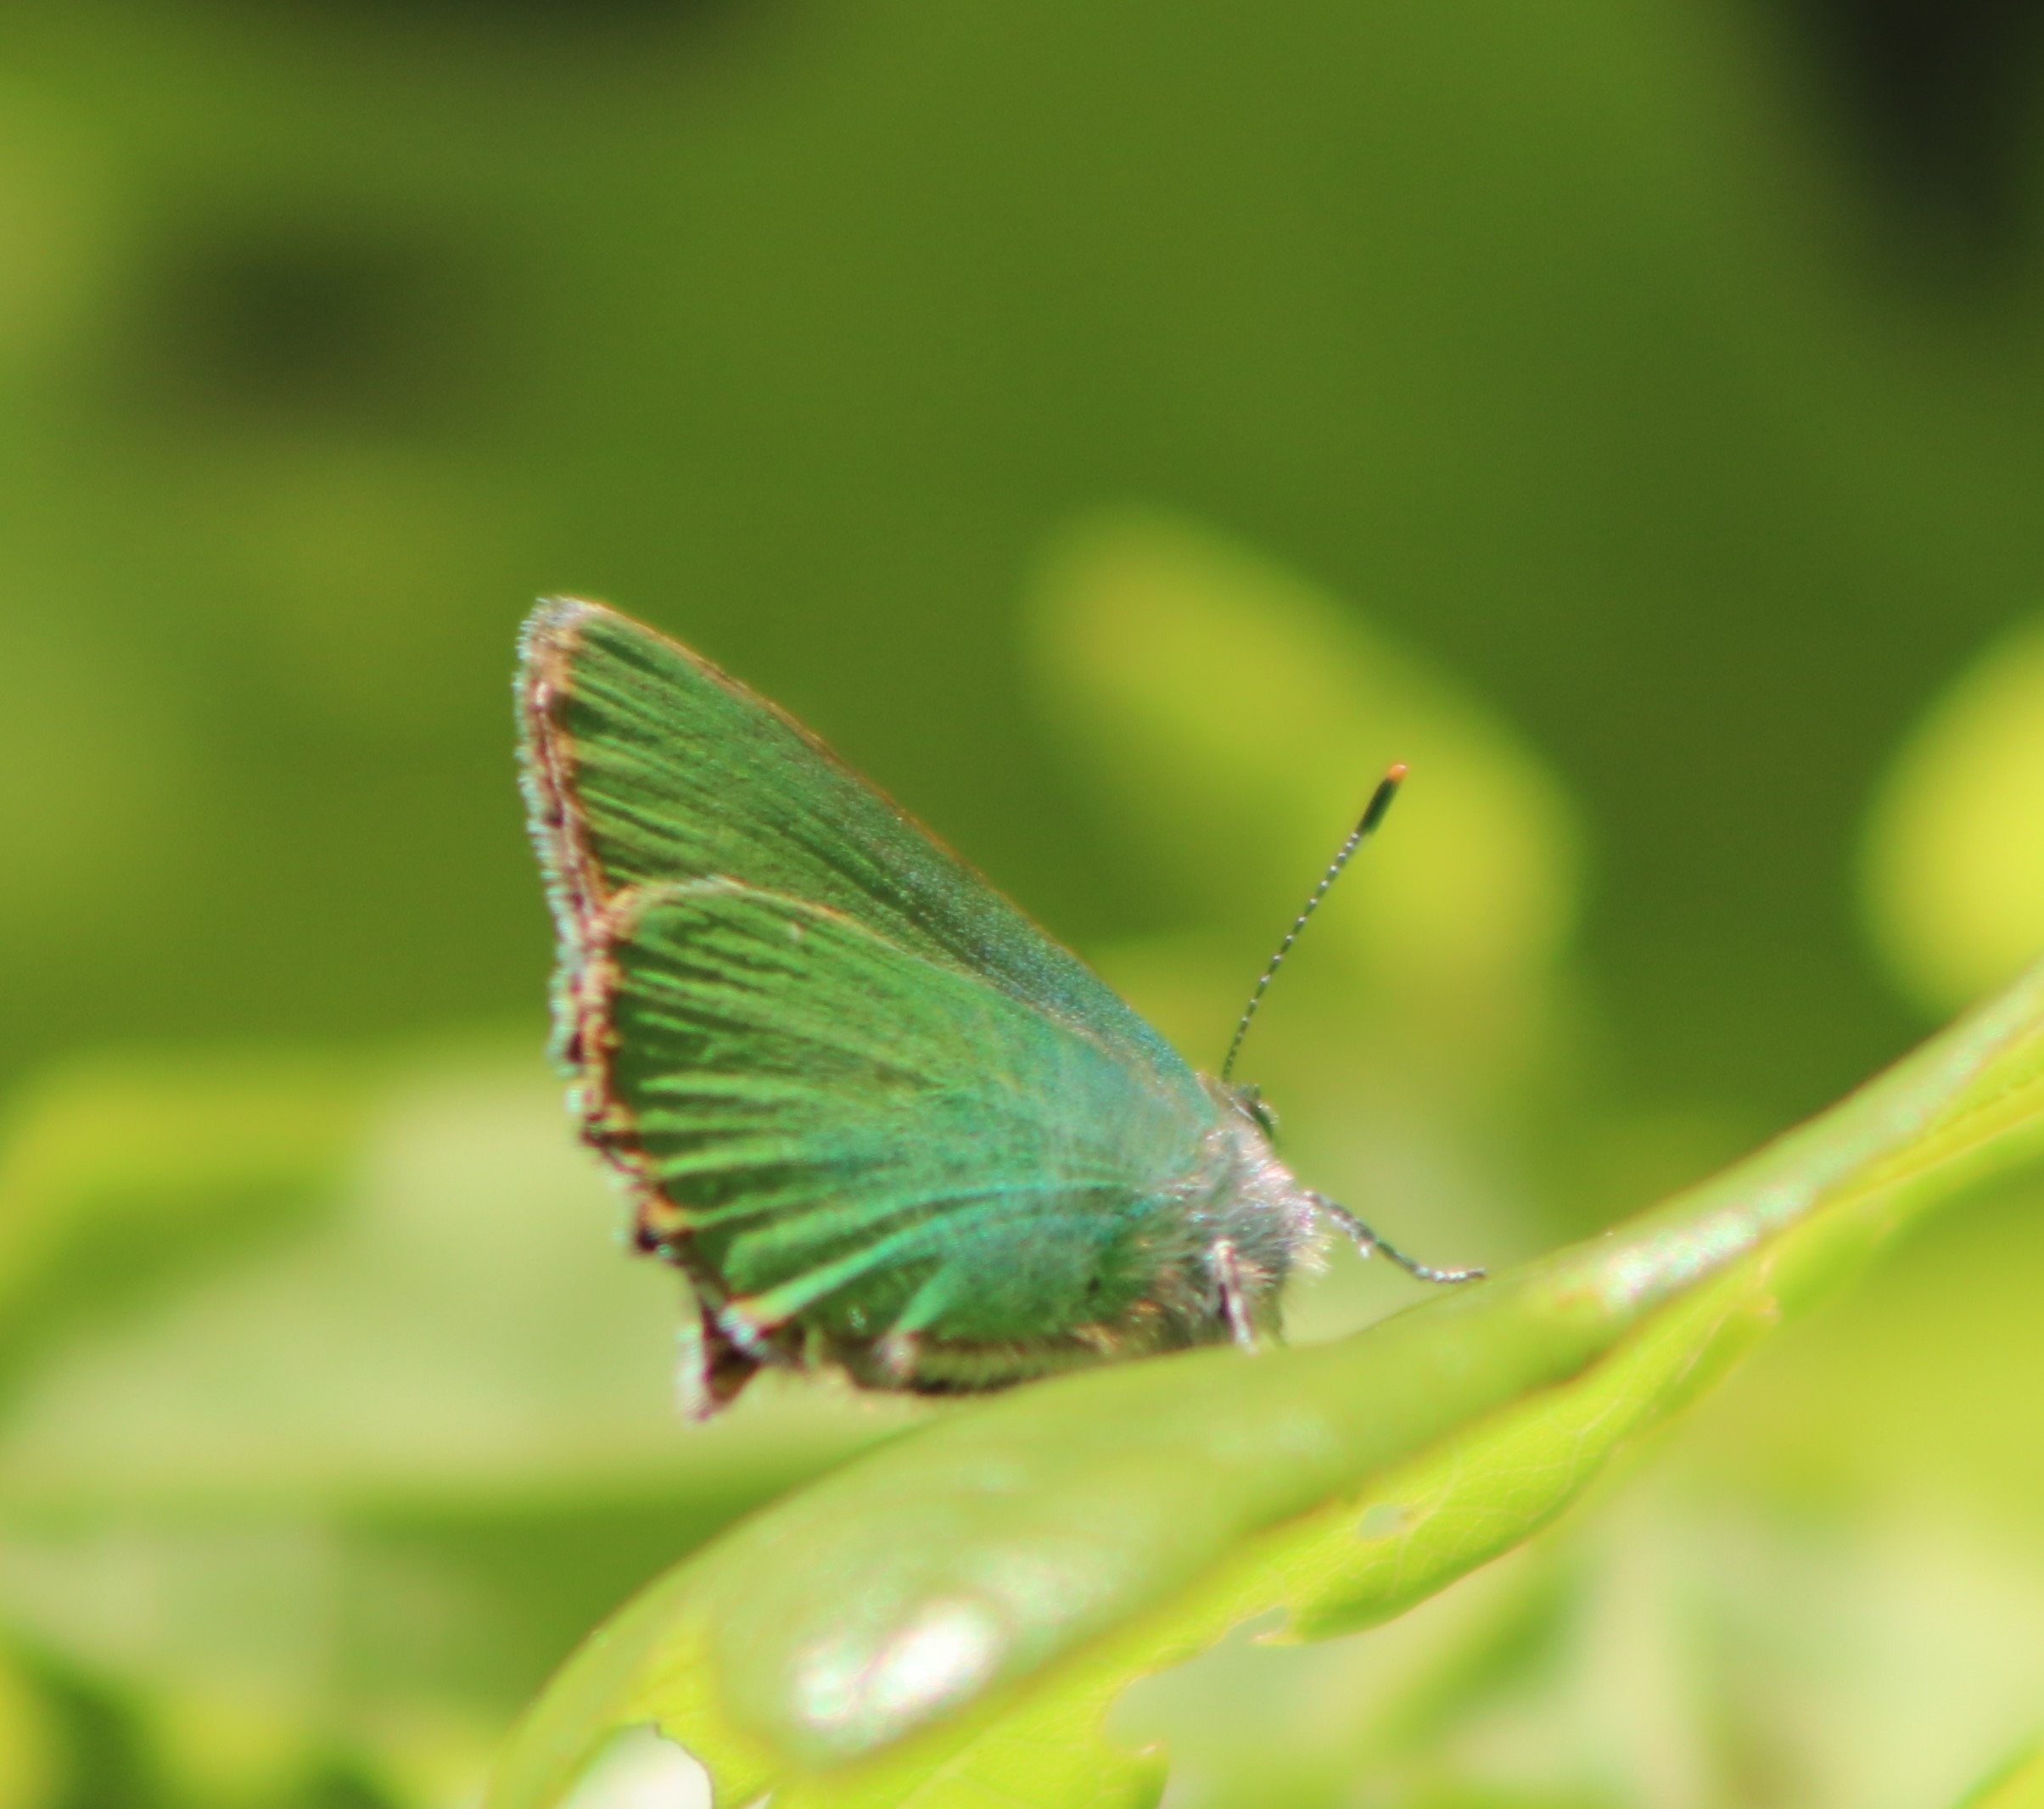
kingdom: Animalia
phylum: Arthropoda
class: Insecta
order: Lepidoptera
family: Lycaenidae
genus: Callophrys
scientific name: Callophrys rubi
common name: Grøn busksommerfugl
